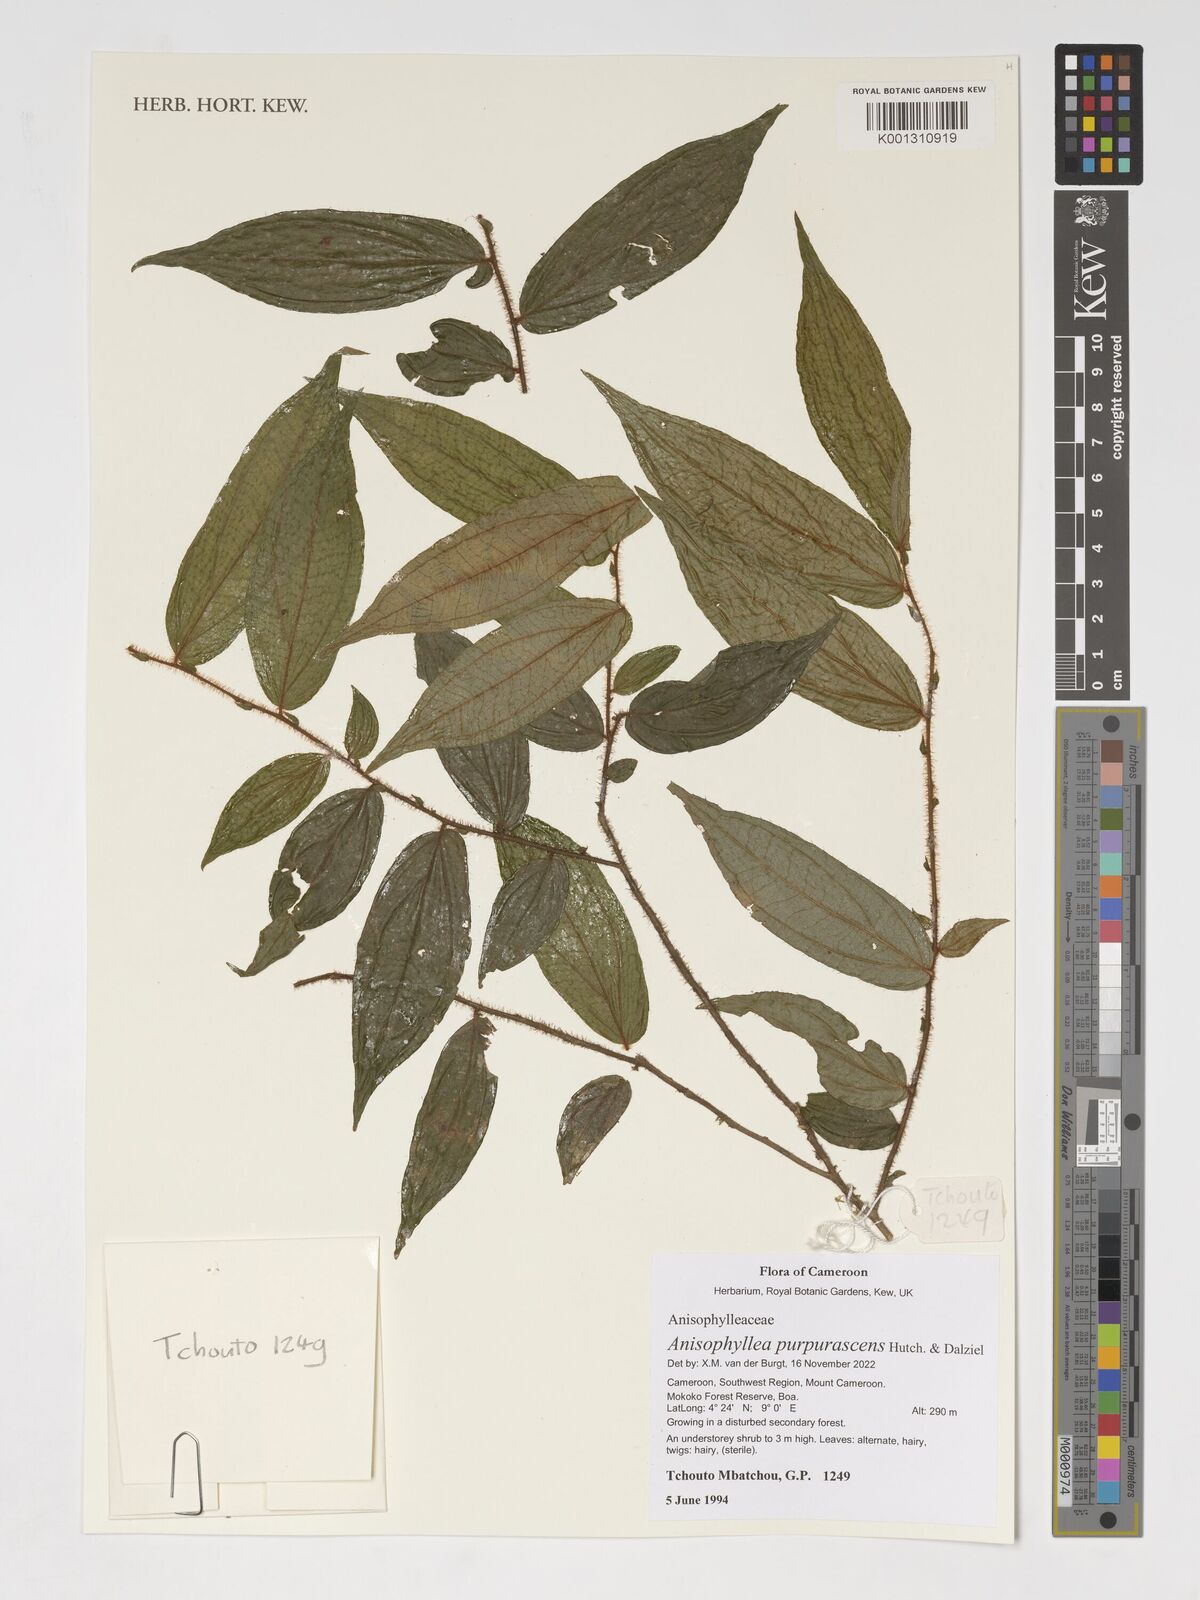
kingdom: Plantae
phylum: Tracheophyta
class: Magnoliopsida
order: Cucurbitales
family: Anisophylleaceae
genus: Anisophyllea
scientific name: Anisophyllea purpurascens
